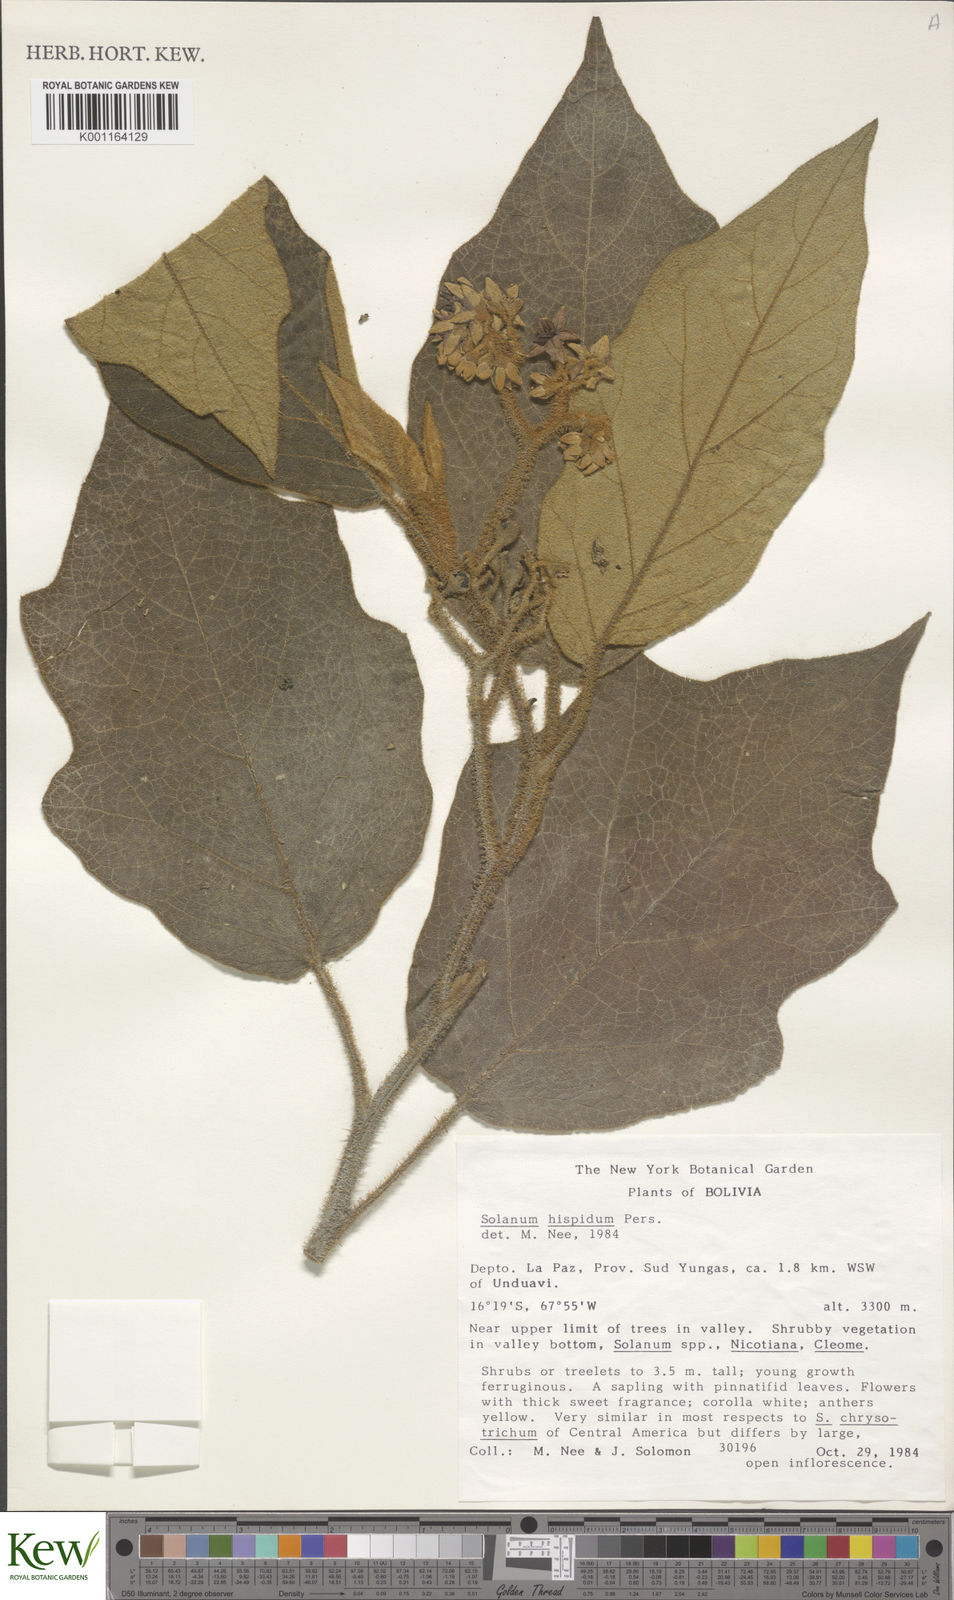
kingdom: Plantae
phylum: Tracheophyta
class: Magnoliopsida
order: Solanales
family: Solanaceae
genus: Solanum
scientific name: Solanum asperolanatum
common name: Devil's-fig
